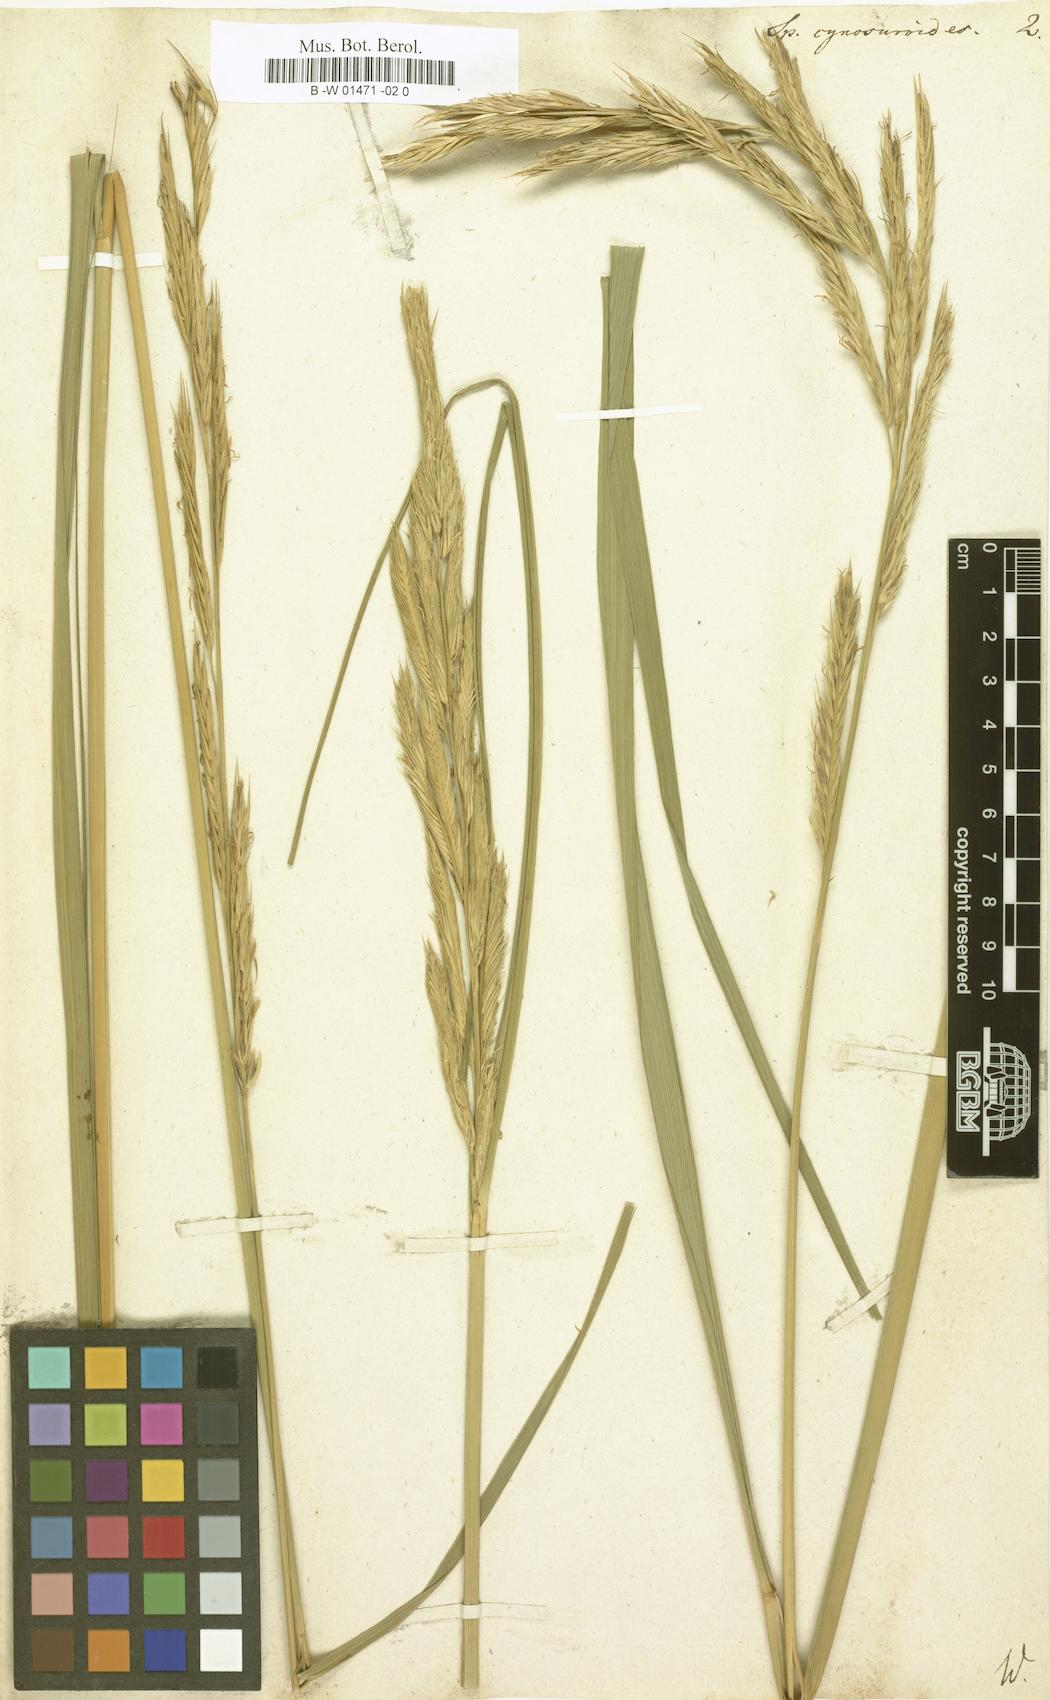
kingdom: Plantae
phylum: Tracheophyta
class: Liliopsida
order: Poales
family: Poaceae
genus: Sporobolus
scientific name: Sporobolus cynosuroides
